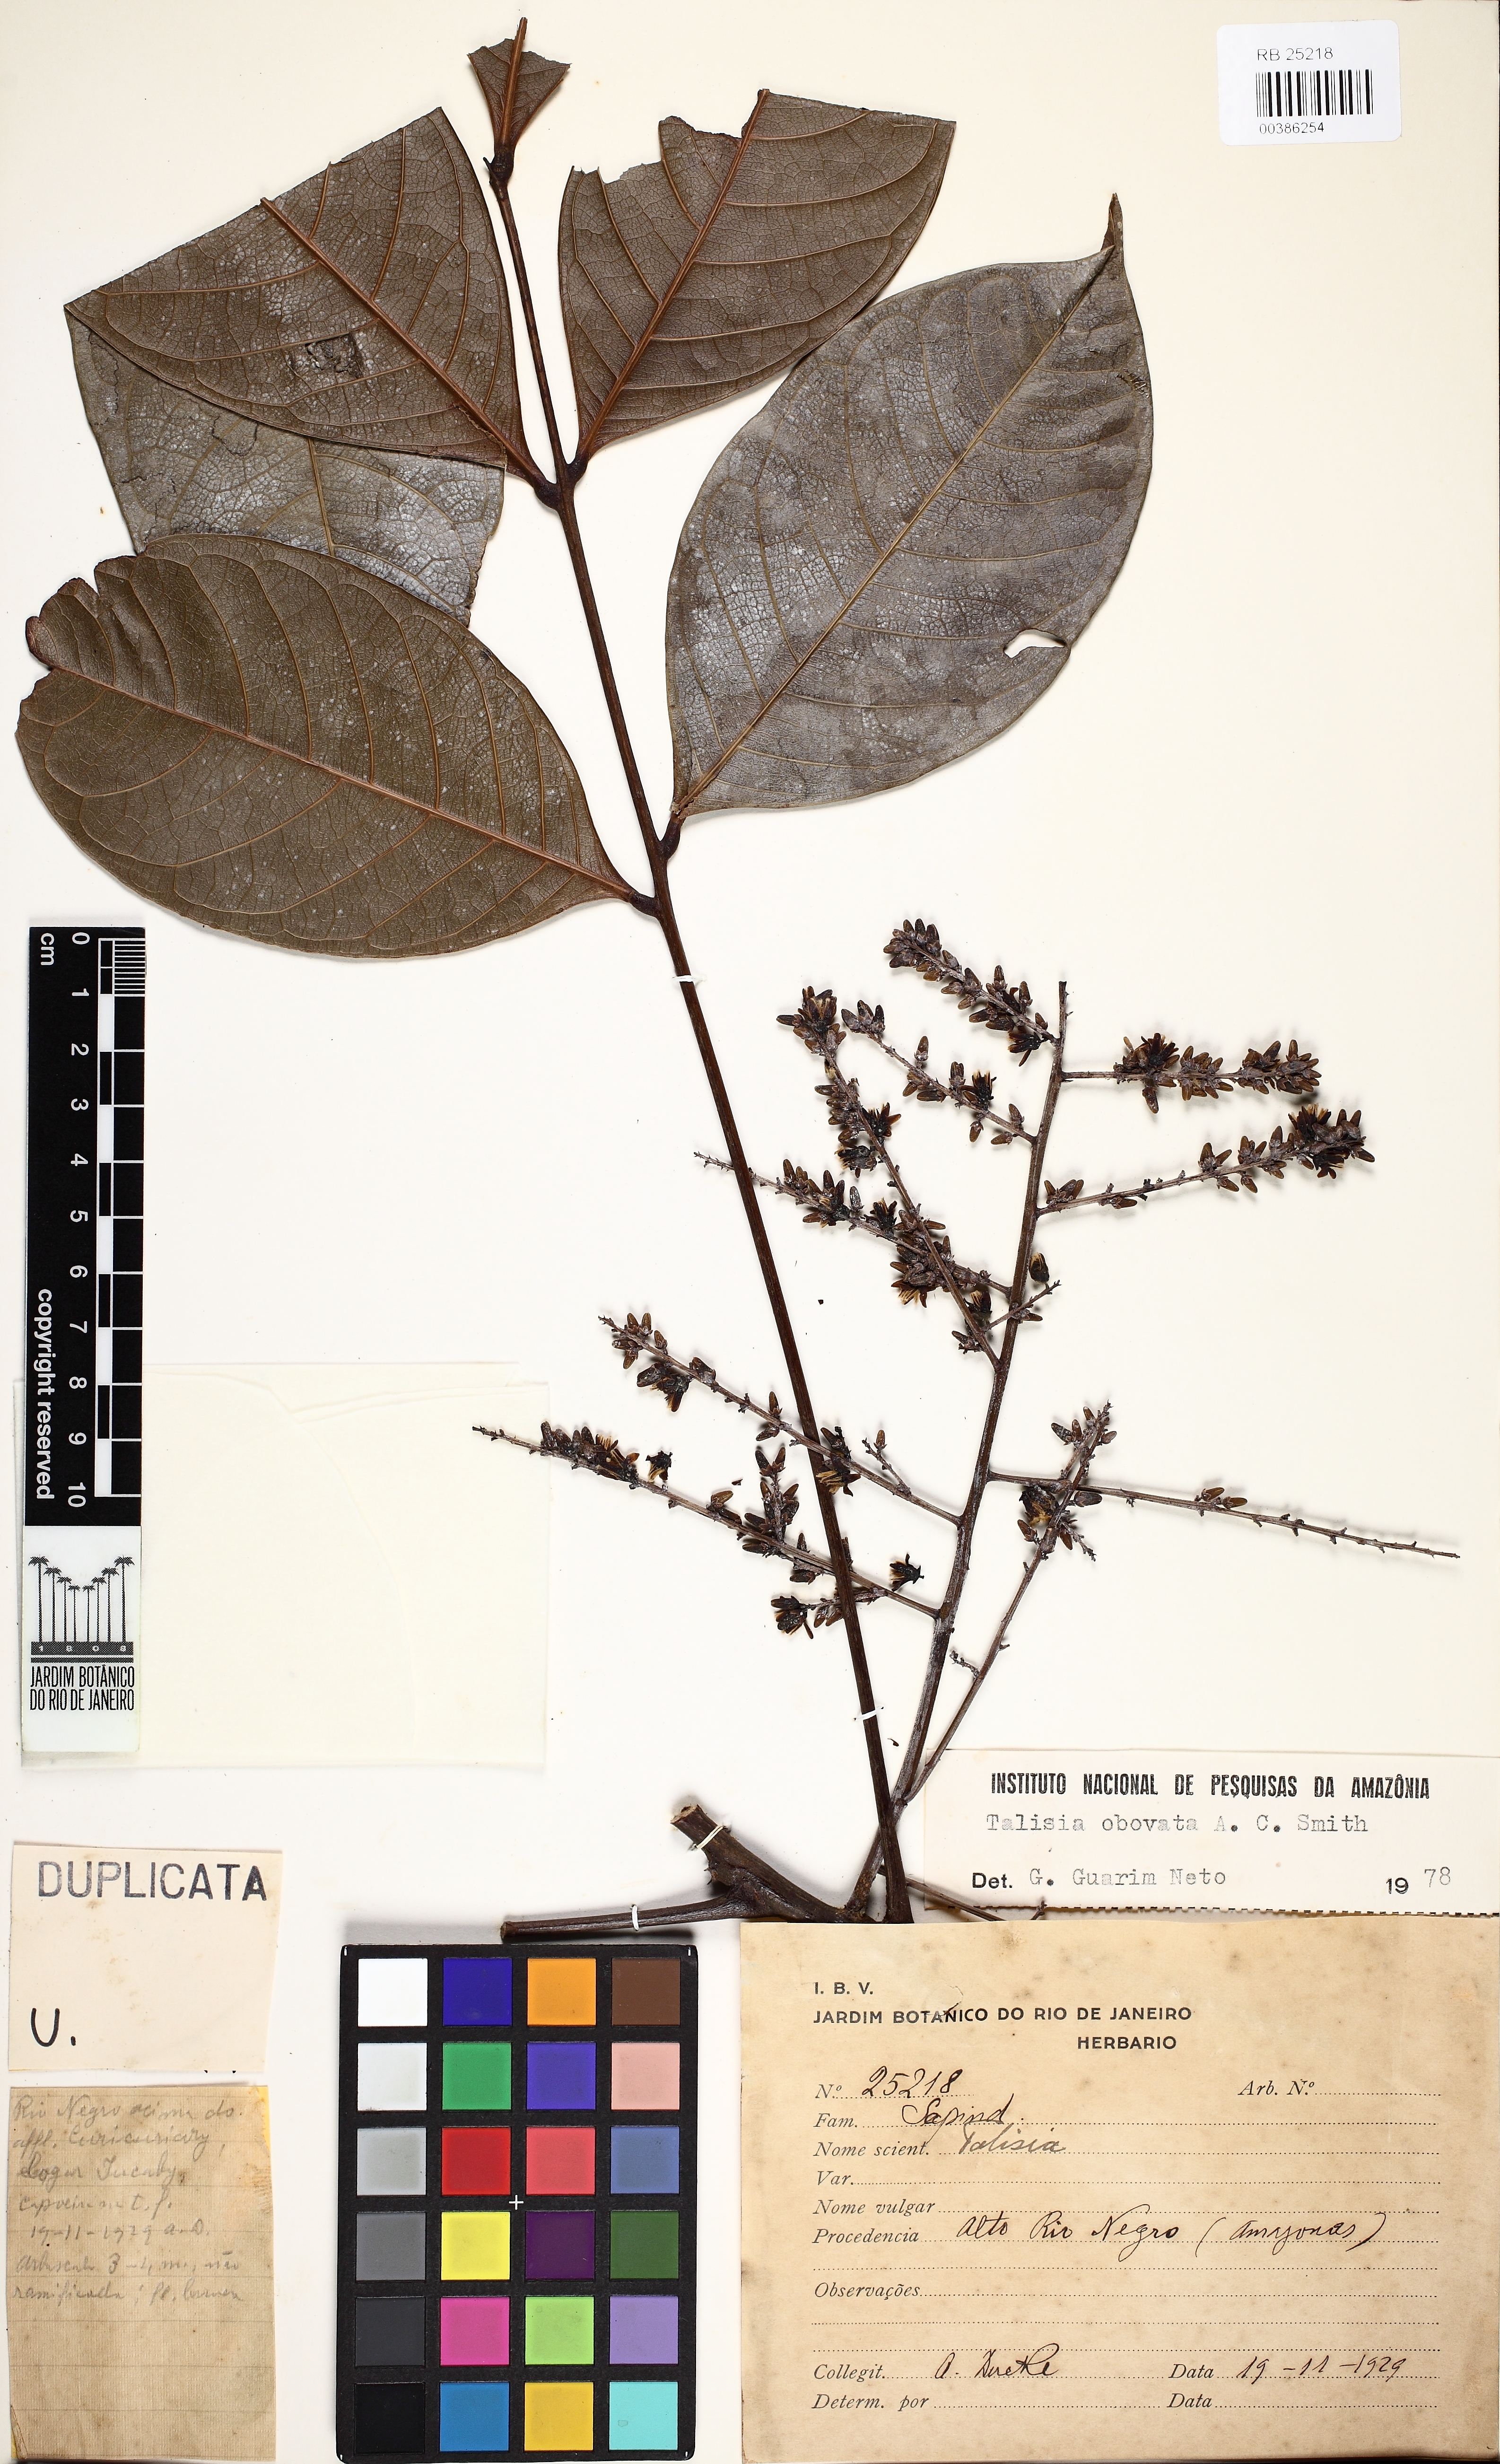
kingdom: Plantae
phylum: Tracheophyta
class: Magnoliopsida
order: Sapindales
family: Sapindaceae
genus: Talisia
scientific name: Talisia macrophylla
